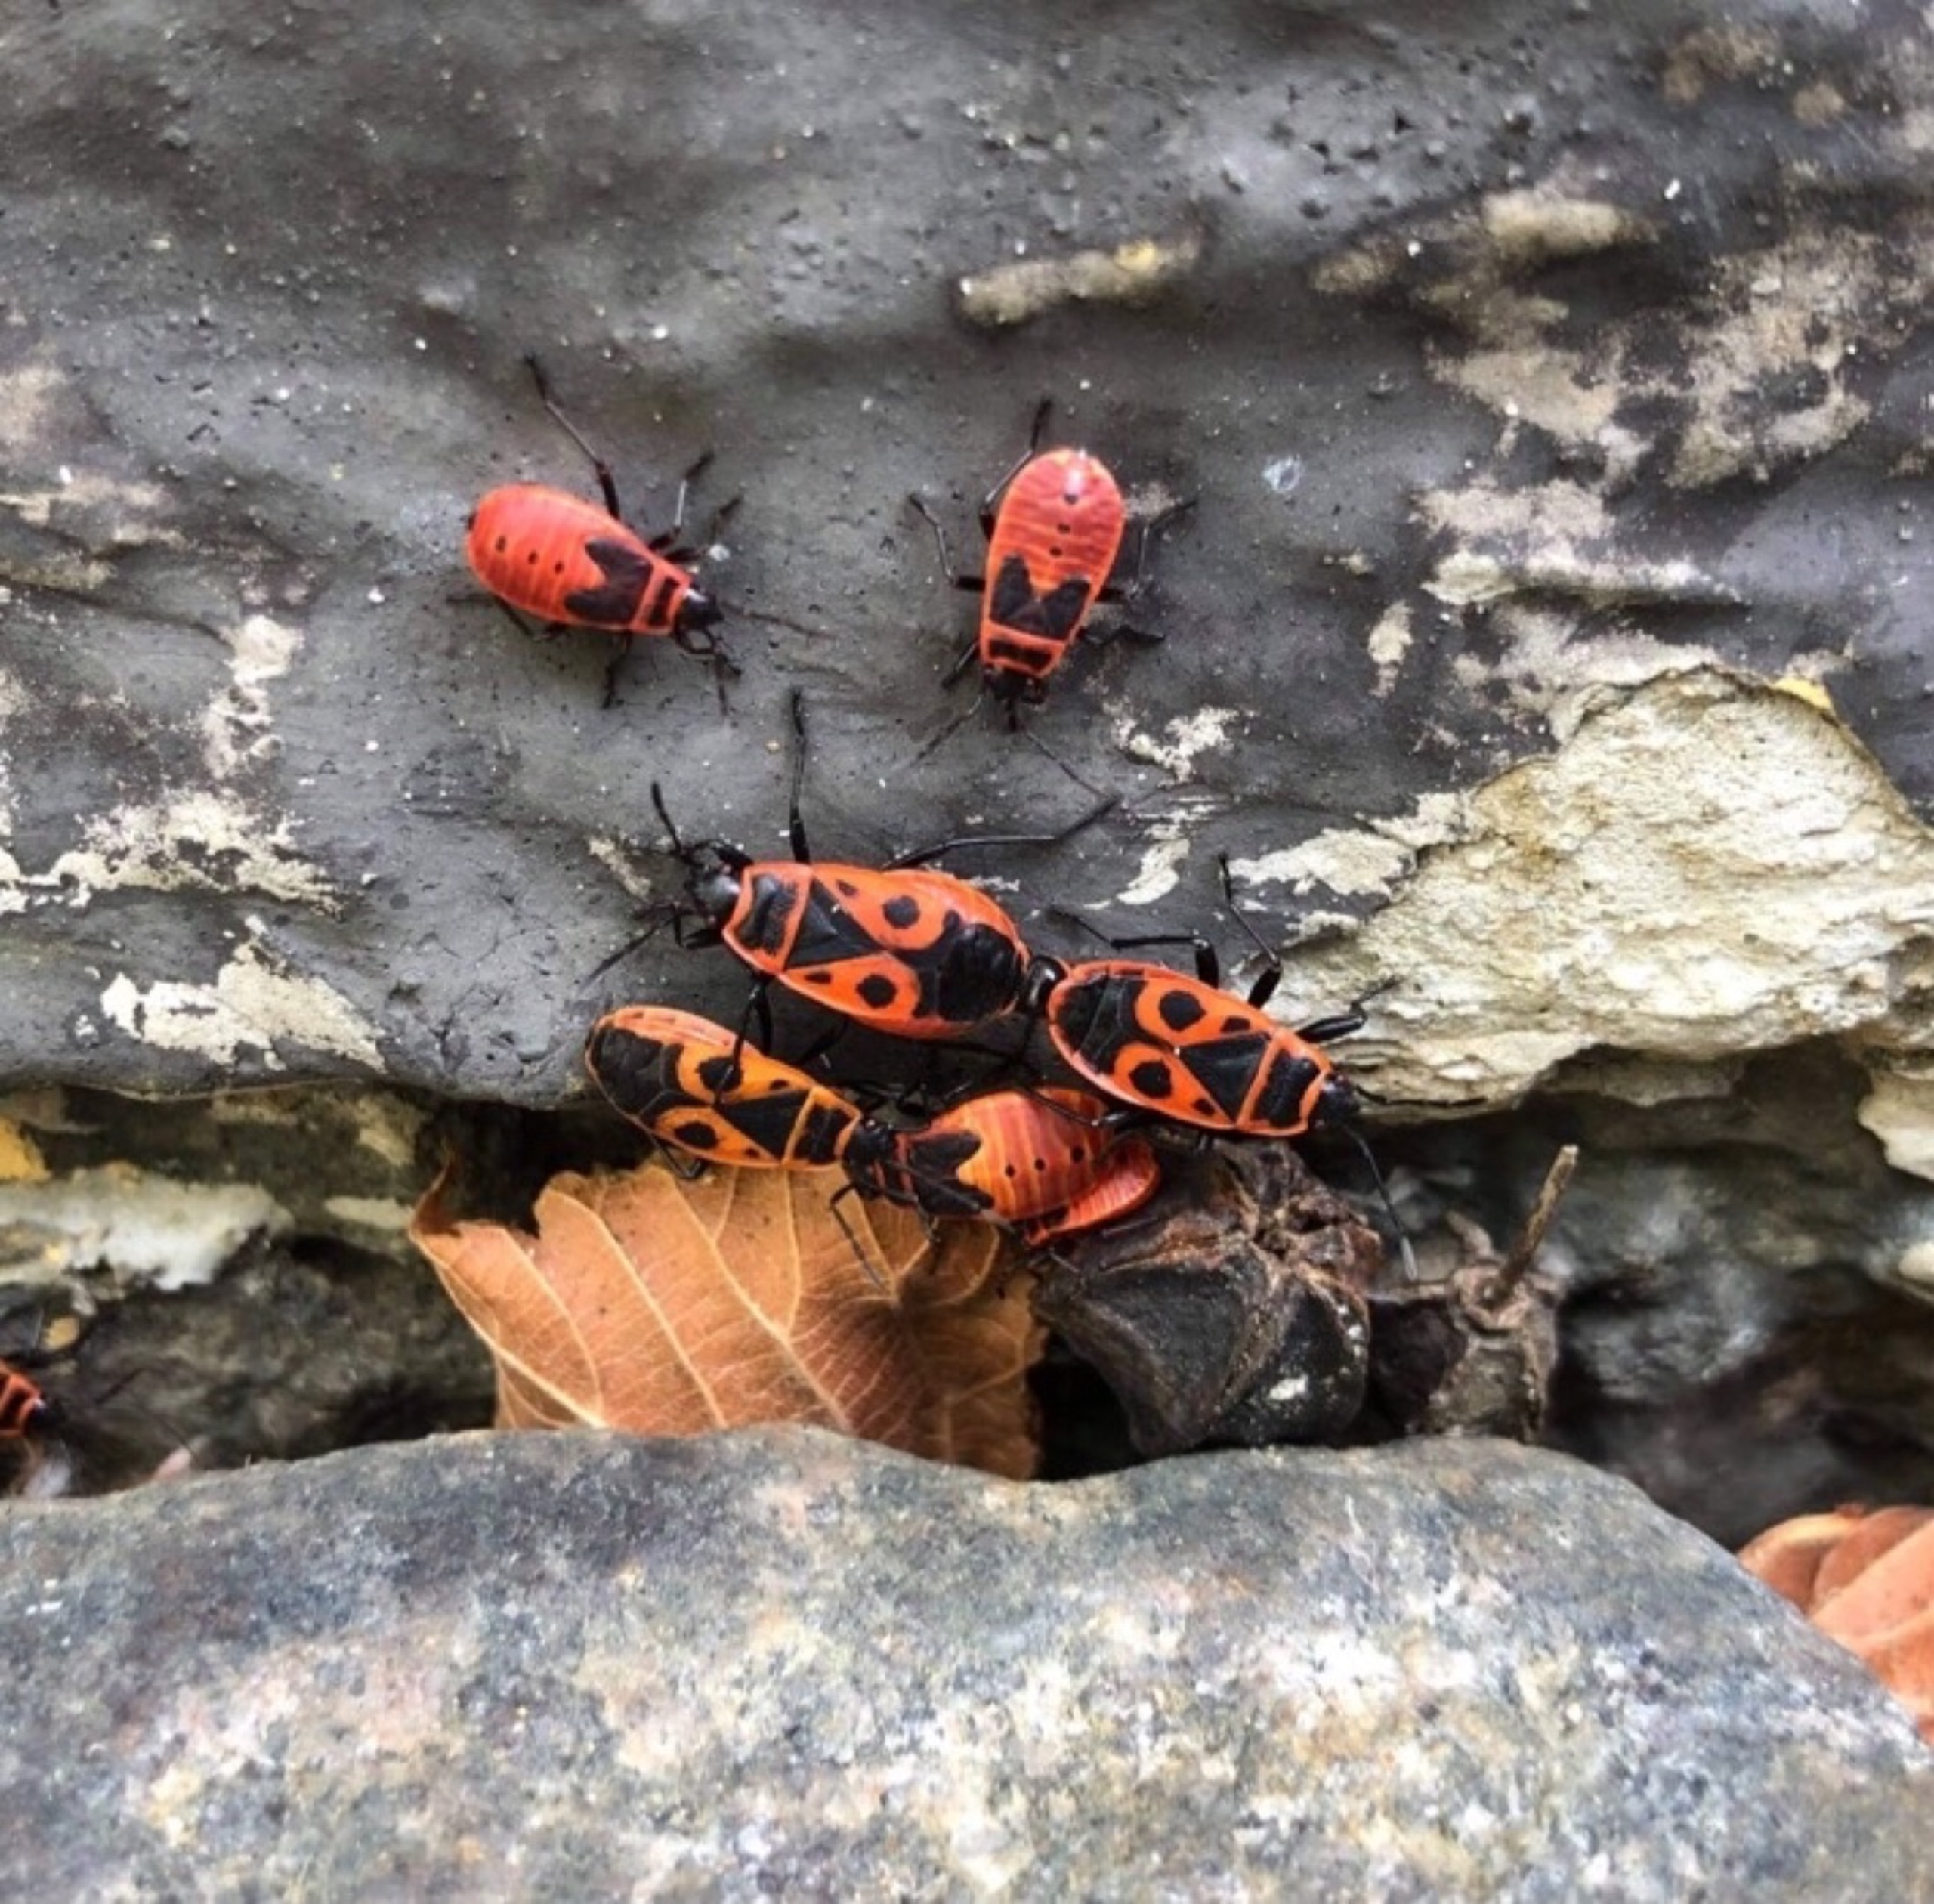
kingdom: Animalia
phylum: Arthropoda
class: Insecta
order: Hemiptera
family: Pyrrhocoridae
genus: Pyrrhocoris
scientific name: Pyrrhocoris apterus
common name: Ildtæge
